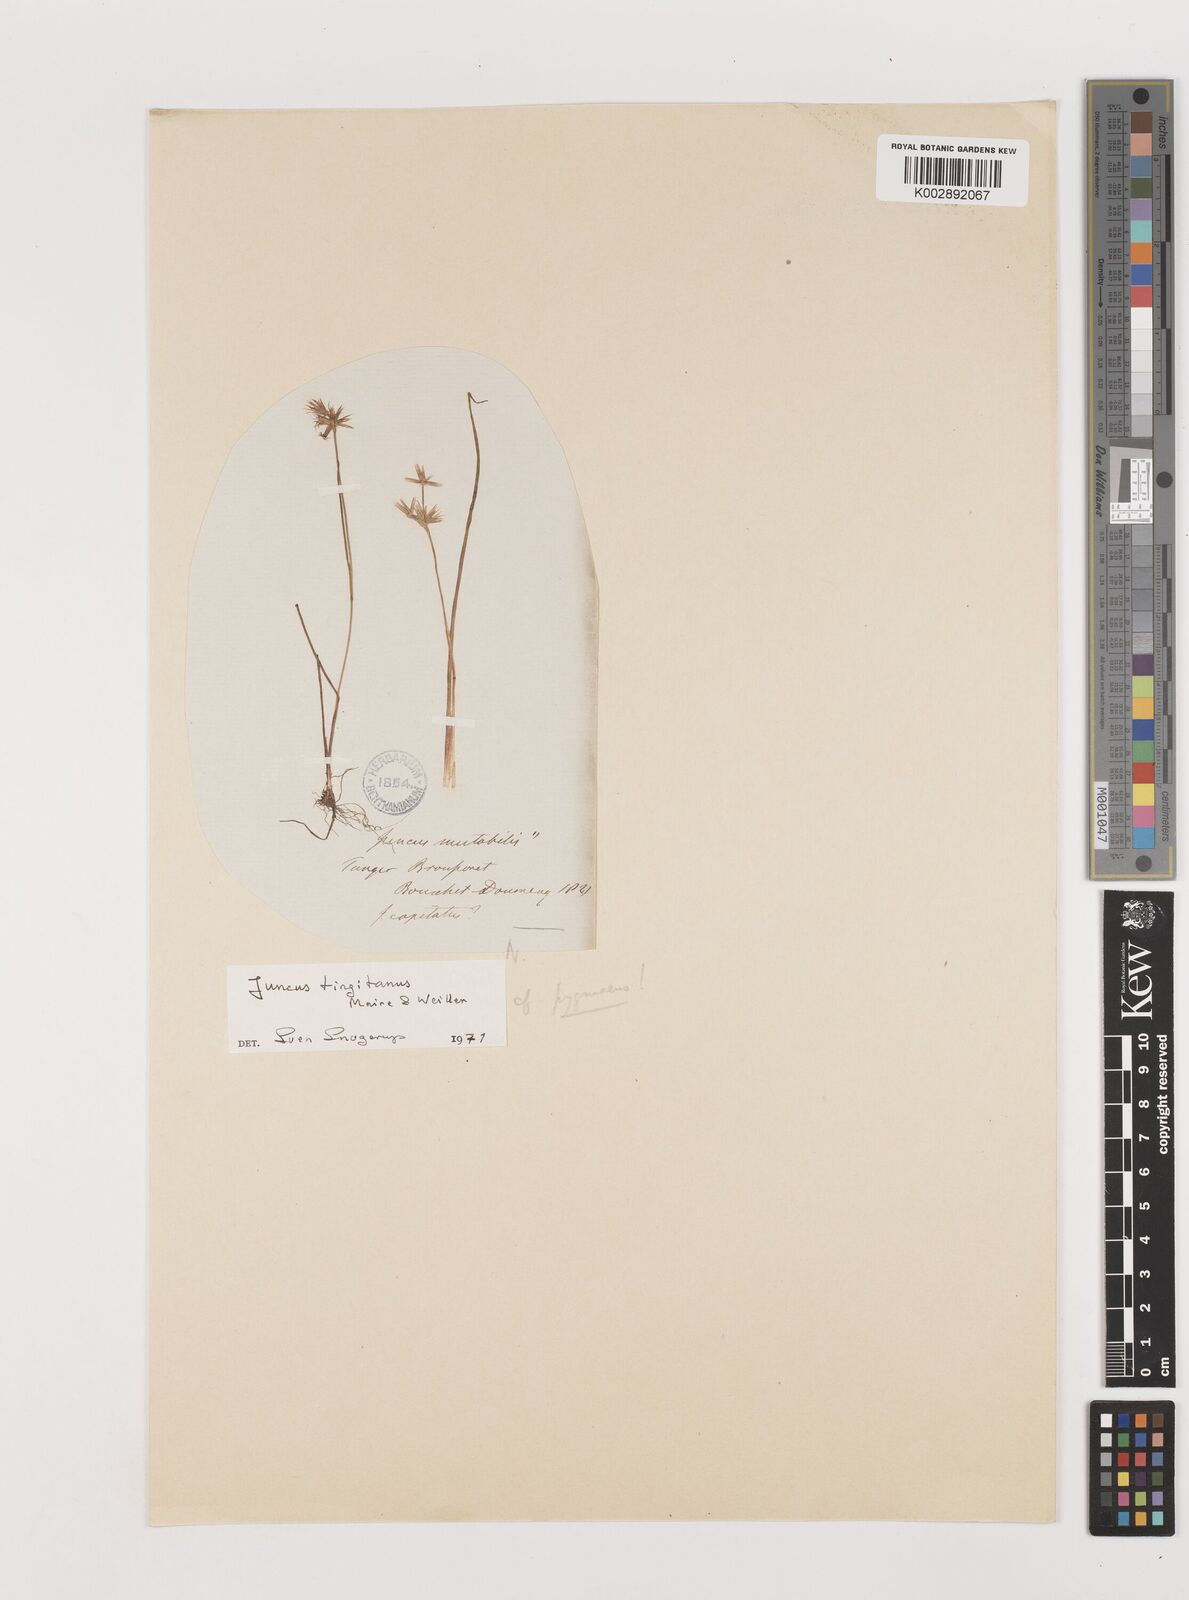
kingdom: Plantae
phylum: Tracheophyta
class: Liliopsida
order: Poales
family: Juncaceae
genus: Juncus
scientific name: Juncus tingitanus
